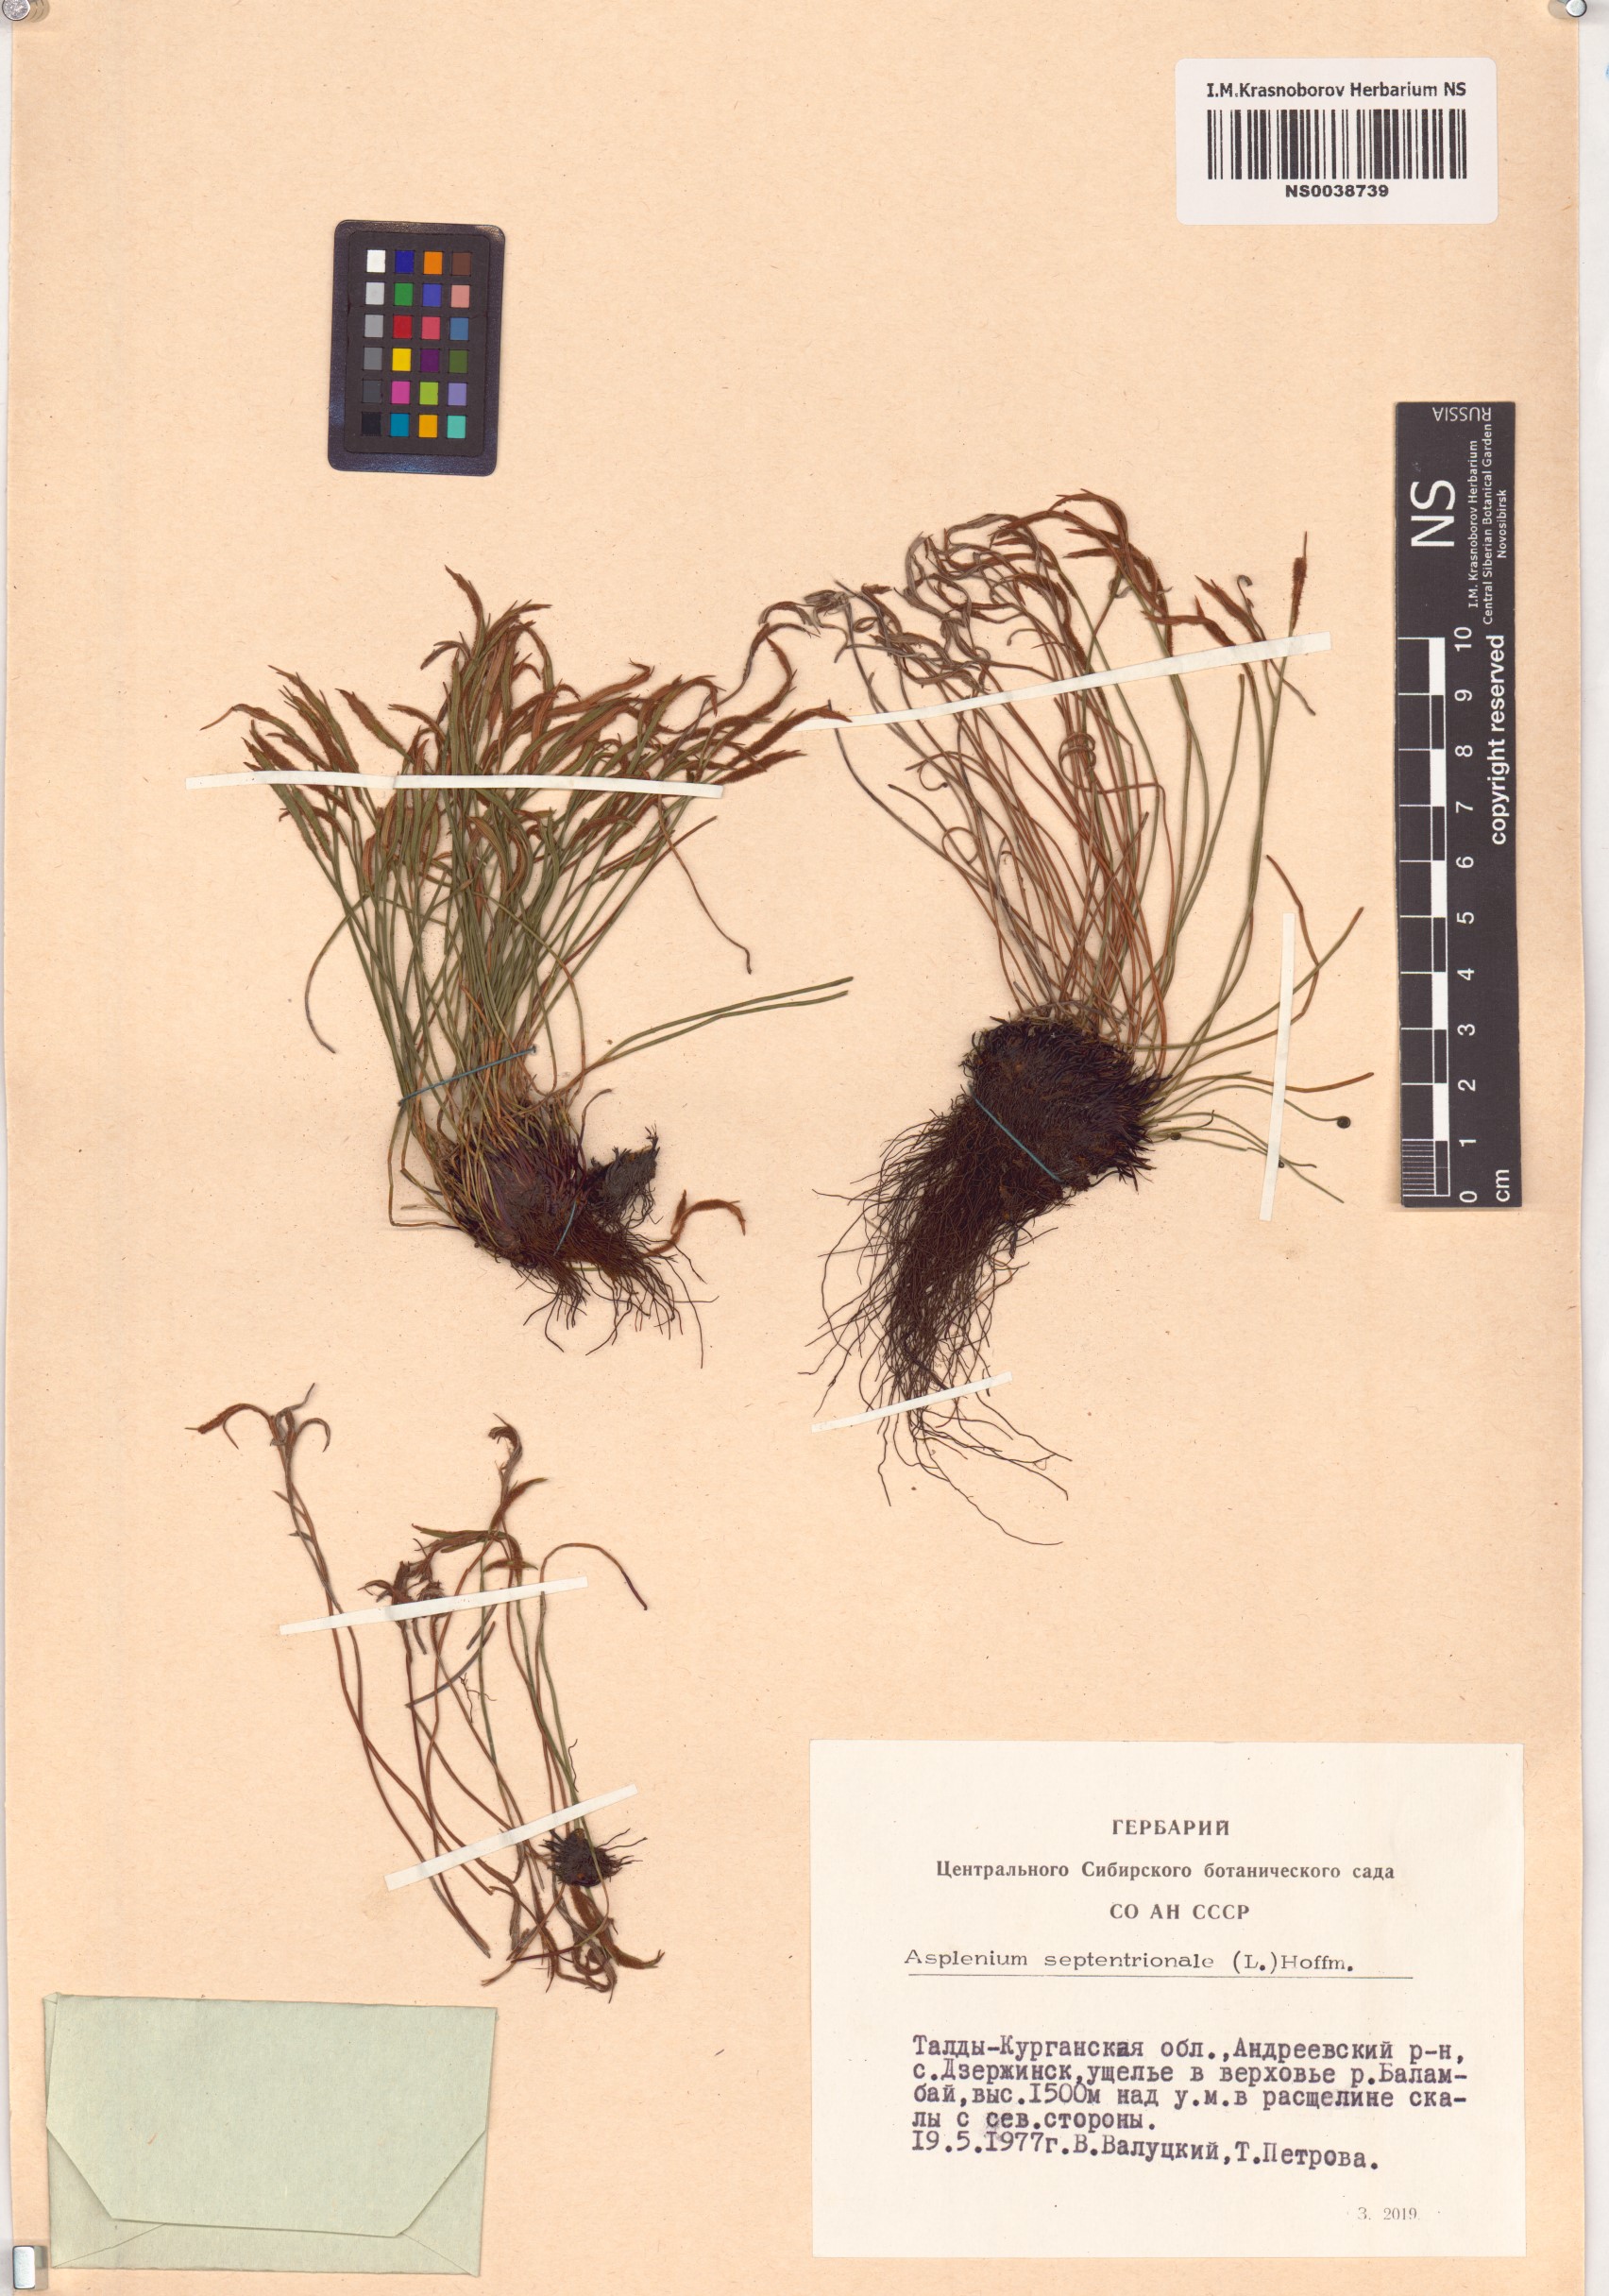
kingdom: Plantae
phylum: Tracheophyta
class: Polypodiopsida
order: Polypodiales
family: Aspleniaceae
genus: Asplenium
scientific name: Asplenium septentrionale
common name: Forked spleenwort
